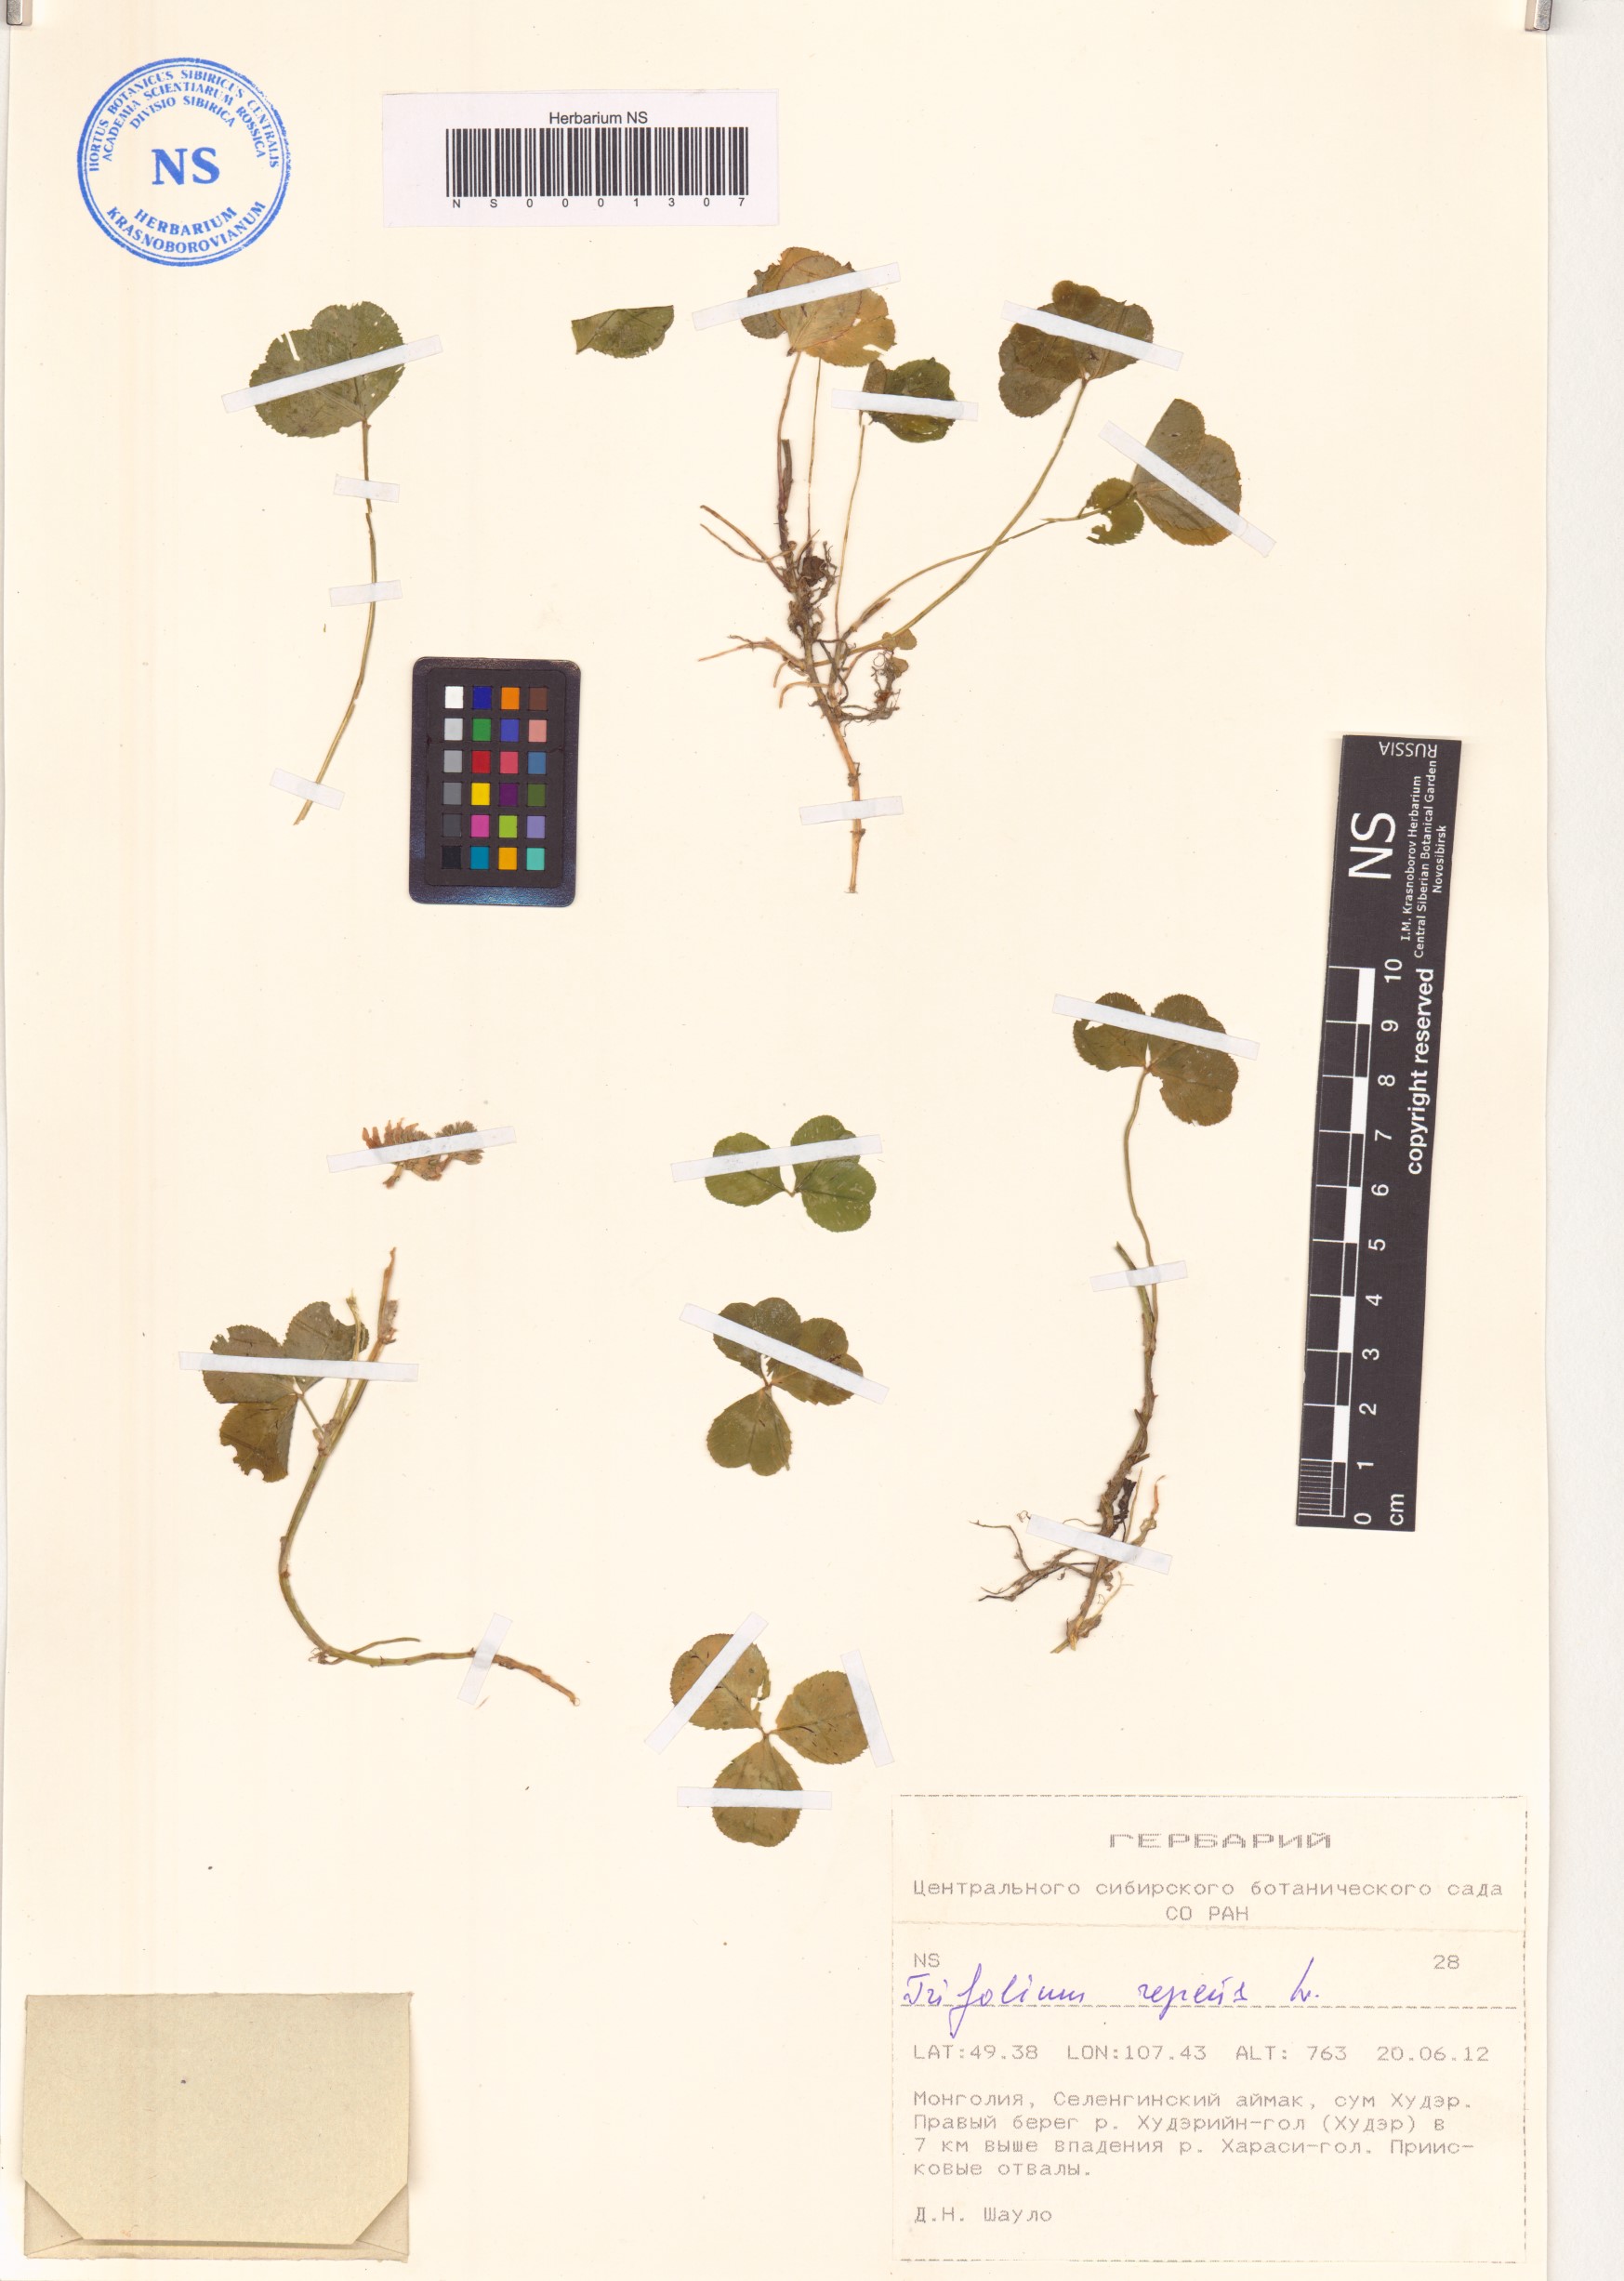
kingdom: Plantae
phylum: Tracheophyta
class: Magnoliopsida
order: Fabales
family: Fabaceae
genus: Trifolium
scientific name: Trifolium repens
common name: White clover
